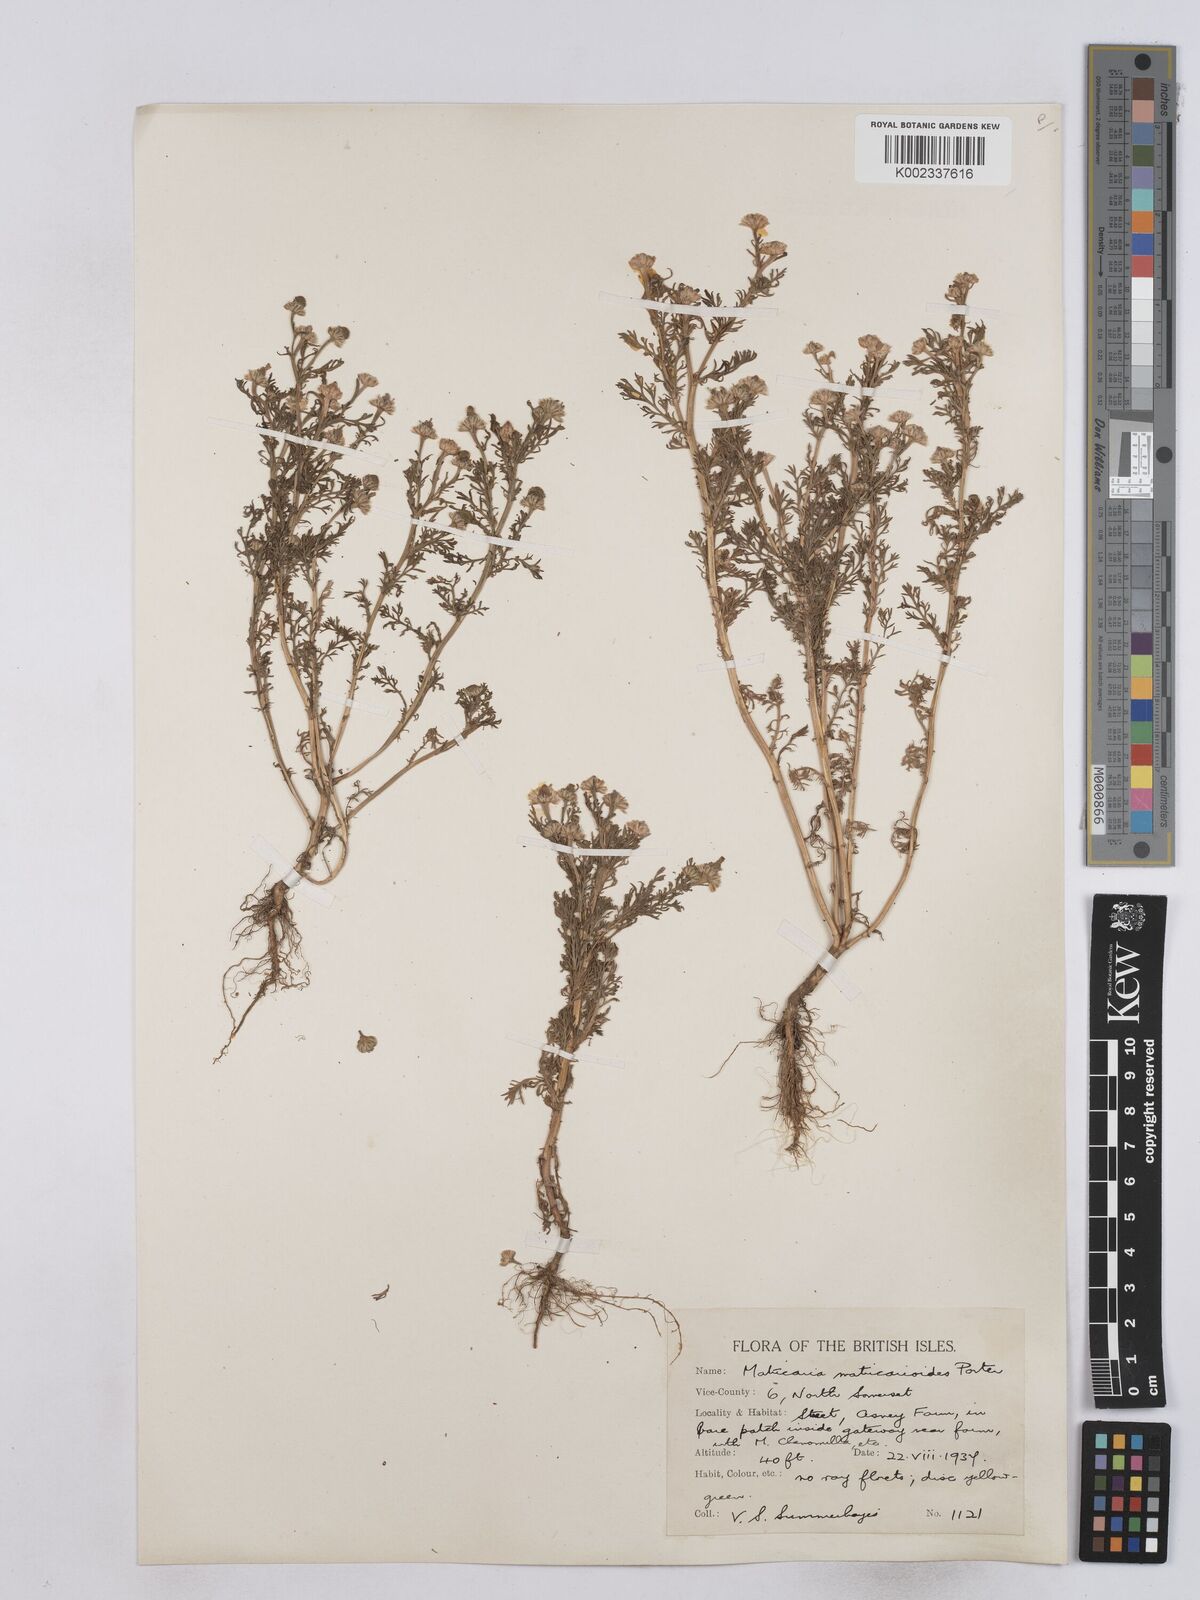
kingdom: Plantae
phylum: Tracheophyta
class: Magnoliopsida
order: Asterales
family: Asteraceae
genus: Matricaria
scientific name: Matricaria discoidea
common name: Disc mayweed
